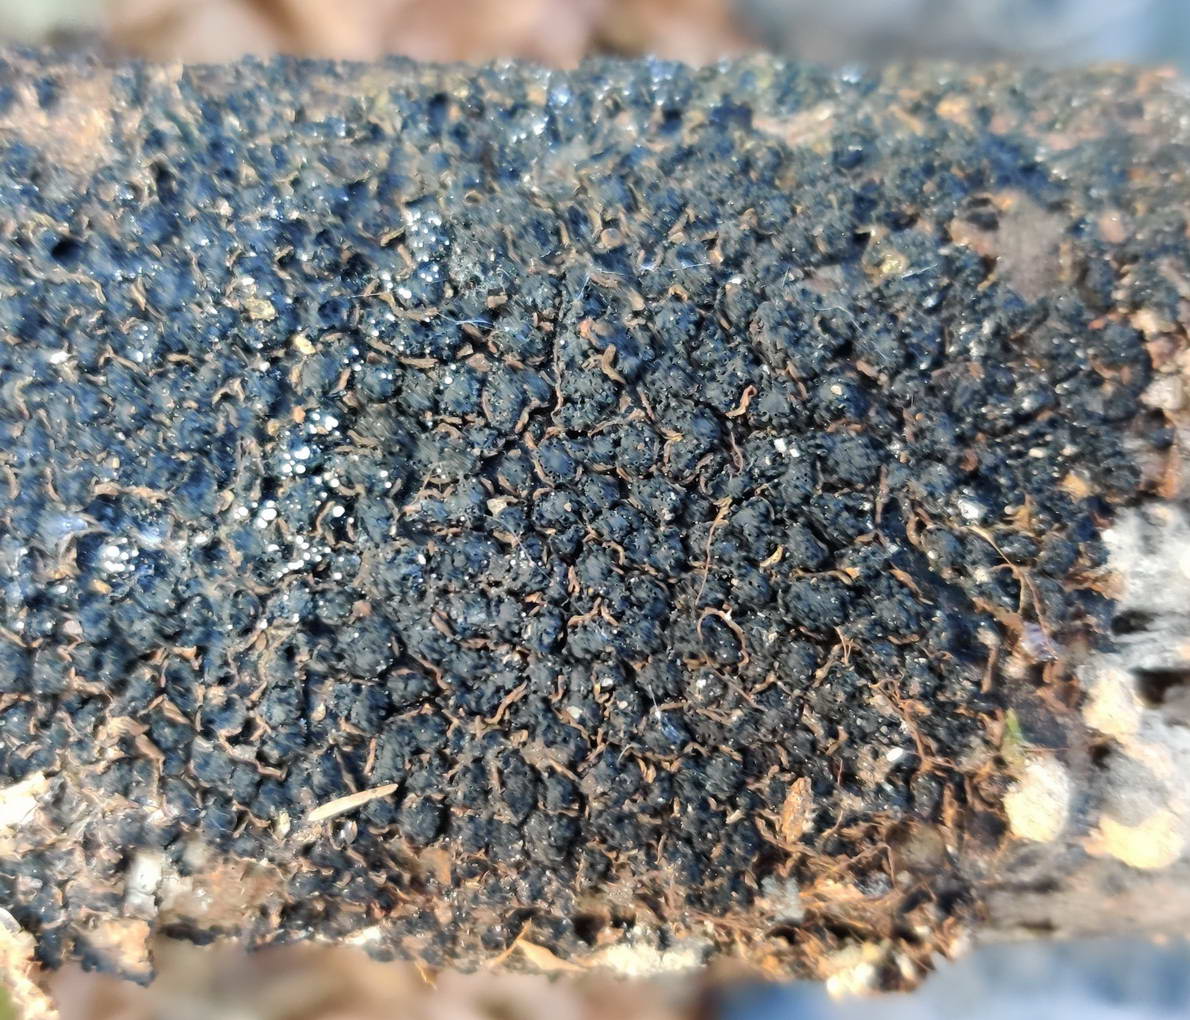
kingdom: Fungi
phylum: Ascomycota
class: Sordariomycetes
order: Xylariales
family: Melogrammataceae
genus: Melogramma
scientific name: Melogramma spiniferum
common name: bøgefod-kulhals
